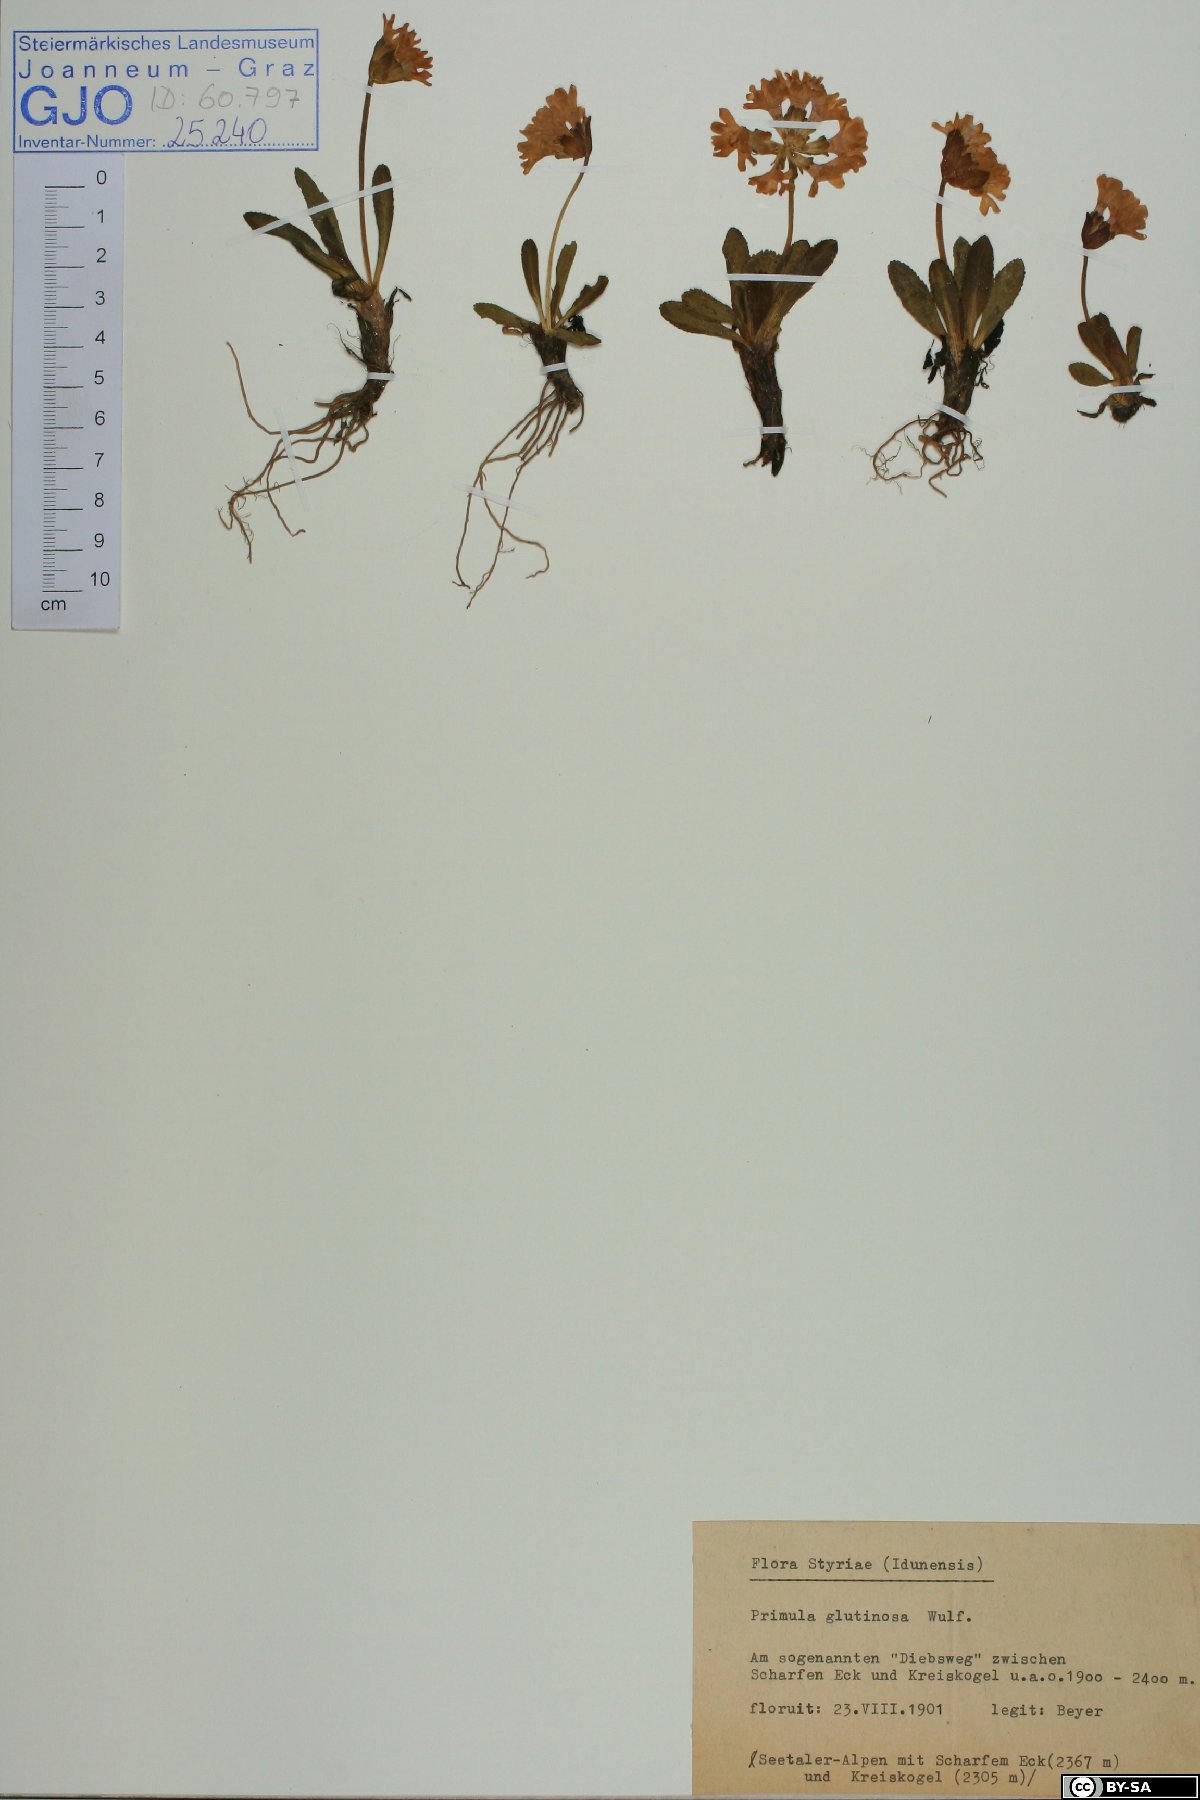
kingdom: Plantae
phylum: Tracheophyta
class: Magnoliopsida
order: Ericales
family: Primulaceae
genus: Primula
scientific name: Primula glutinosa
